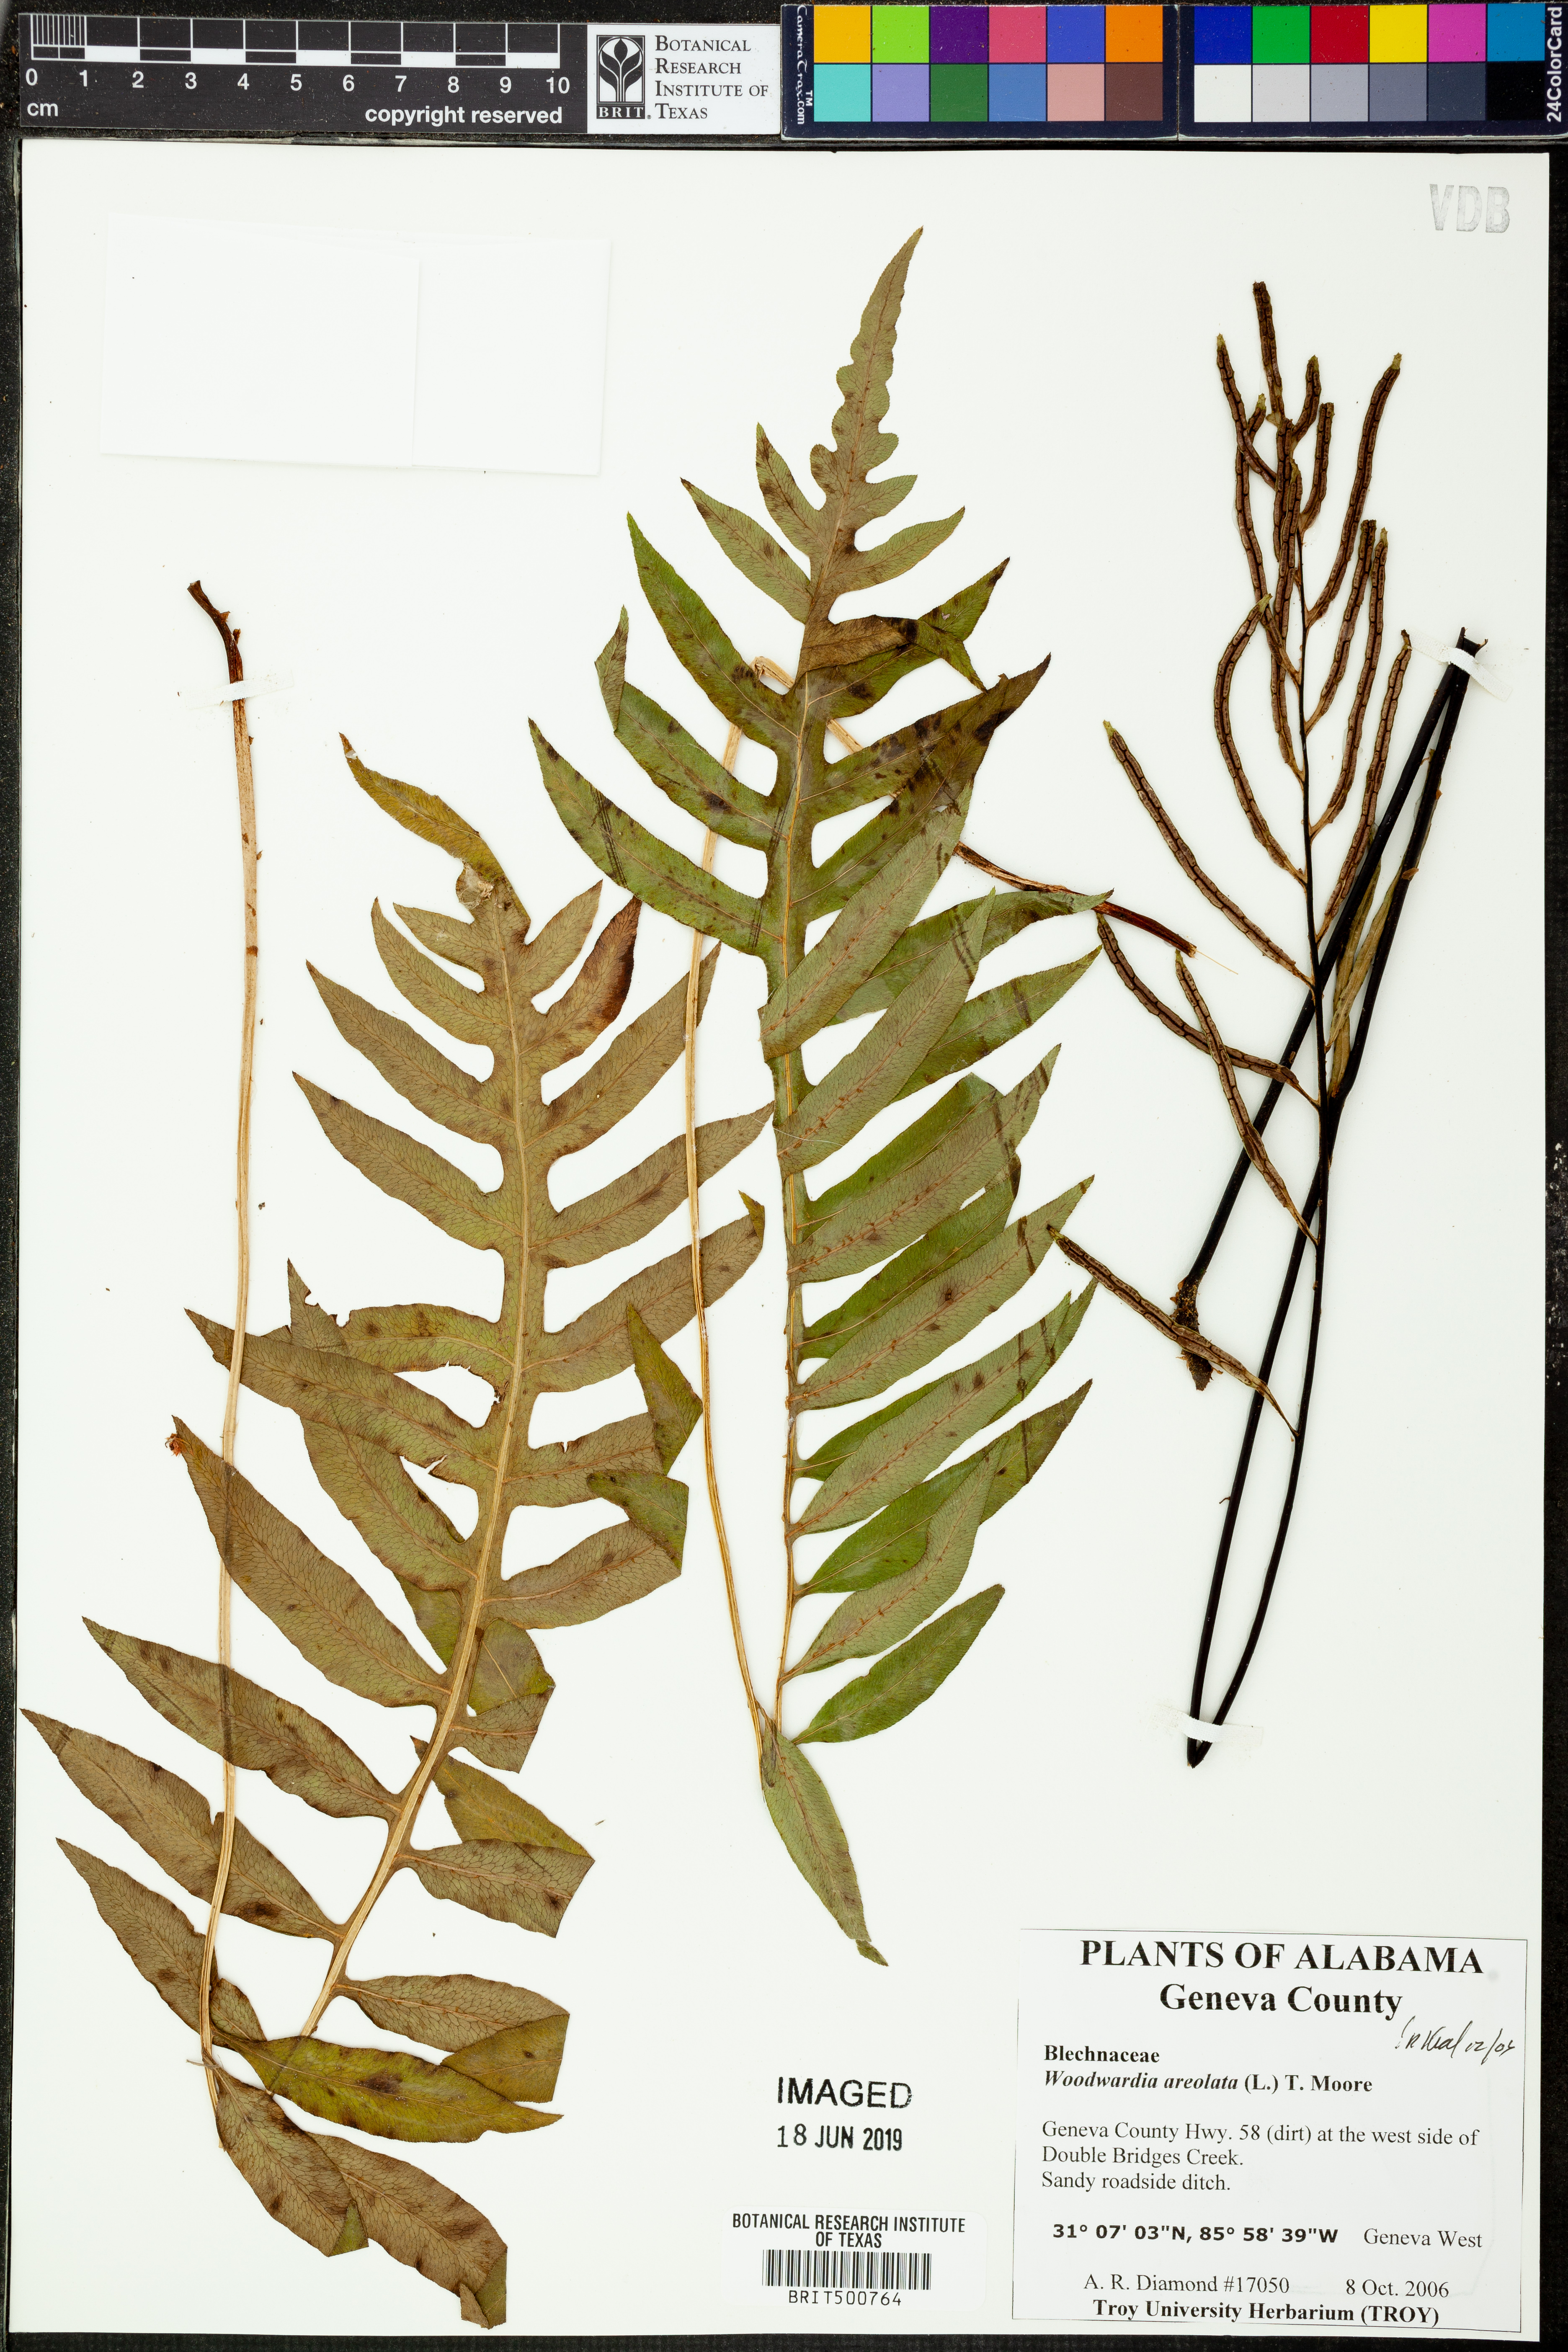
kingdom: Plantae
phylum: Tracheophyta
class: Polypodiopsida
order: Polypodiales
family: Blechnaceae
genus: Lorinseria
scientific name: Lorinseria areolata
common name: Dwarf chain fern
